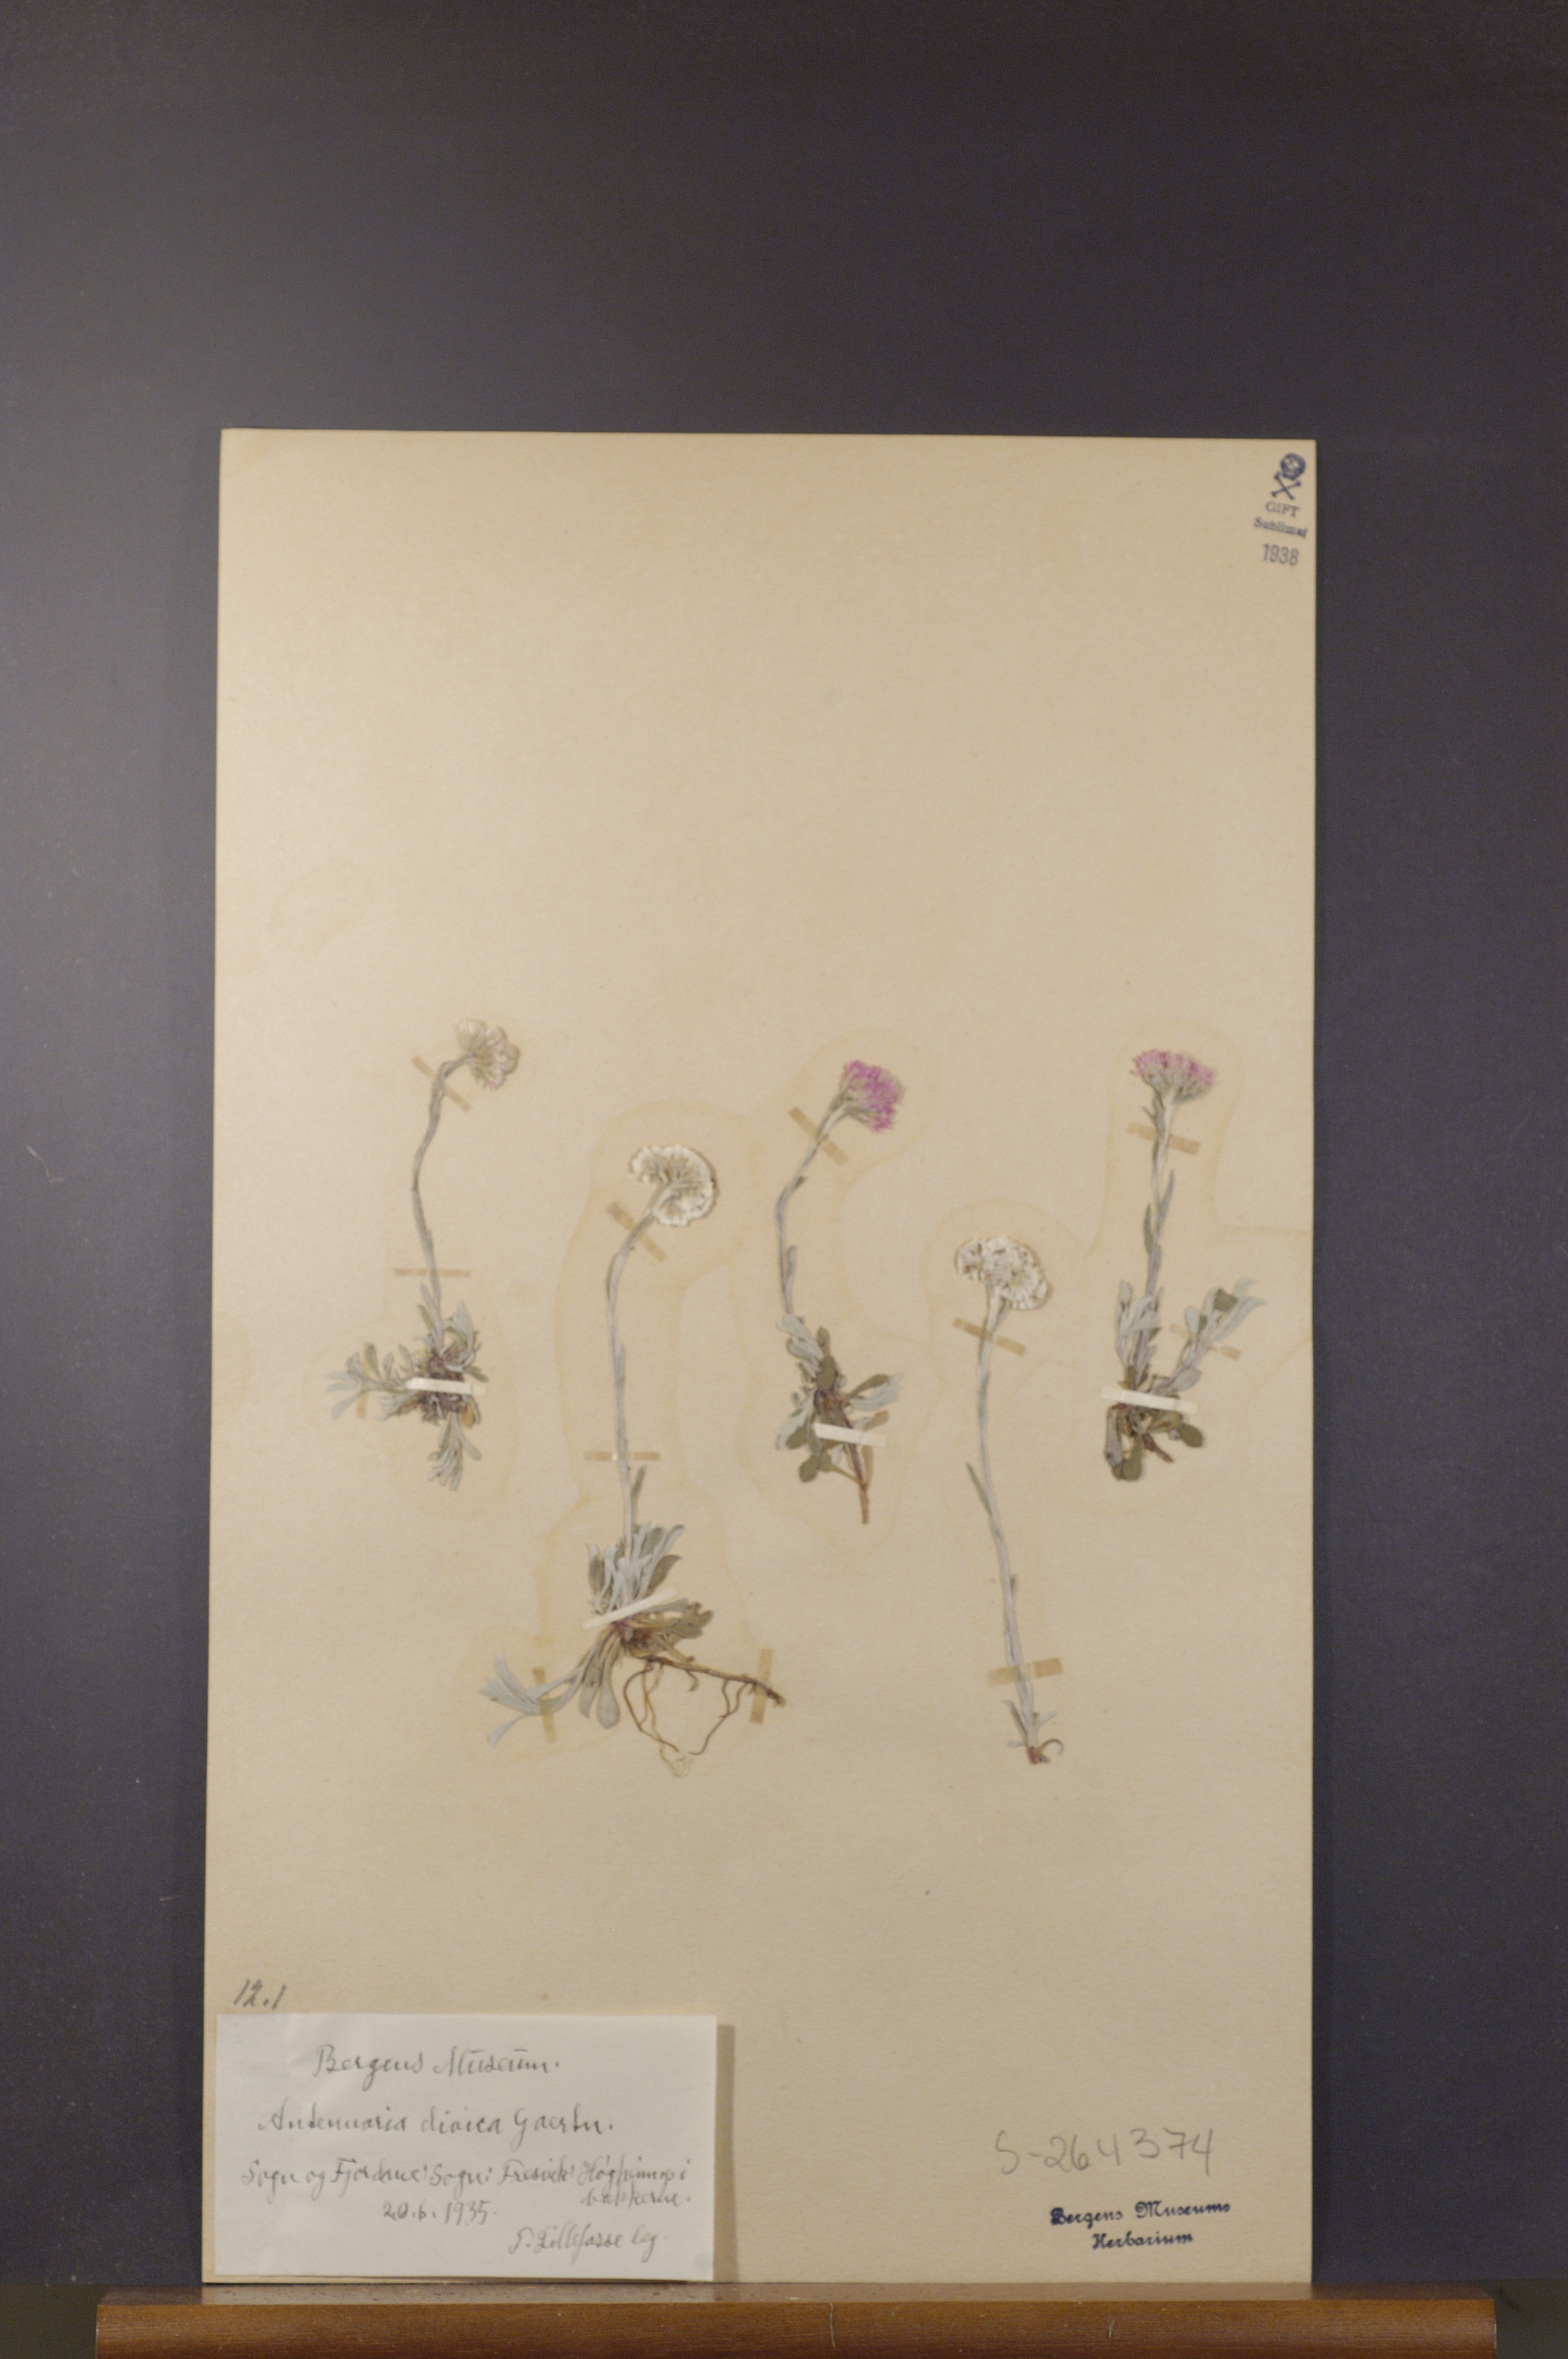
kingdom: Plantae
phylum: Tracheophyta
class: Magnoliopsida
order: Asterales
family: Asteraceae
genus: Antennaria
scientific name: Antennaria dioica
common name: Mountain everlasting
